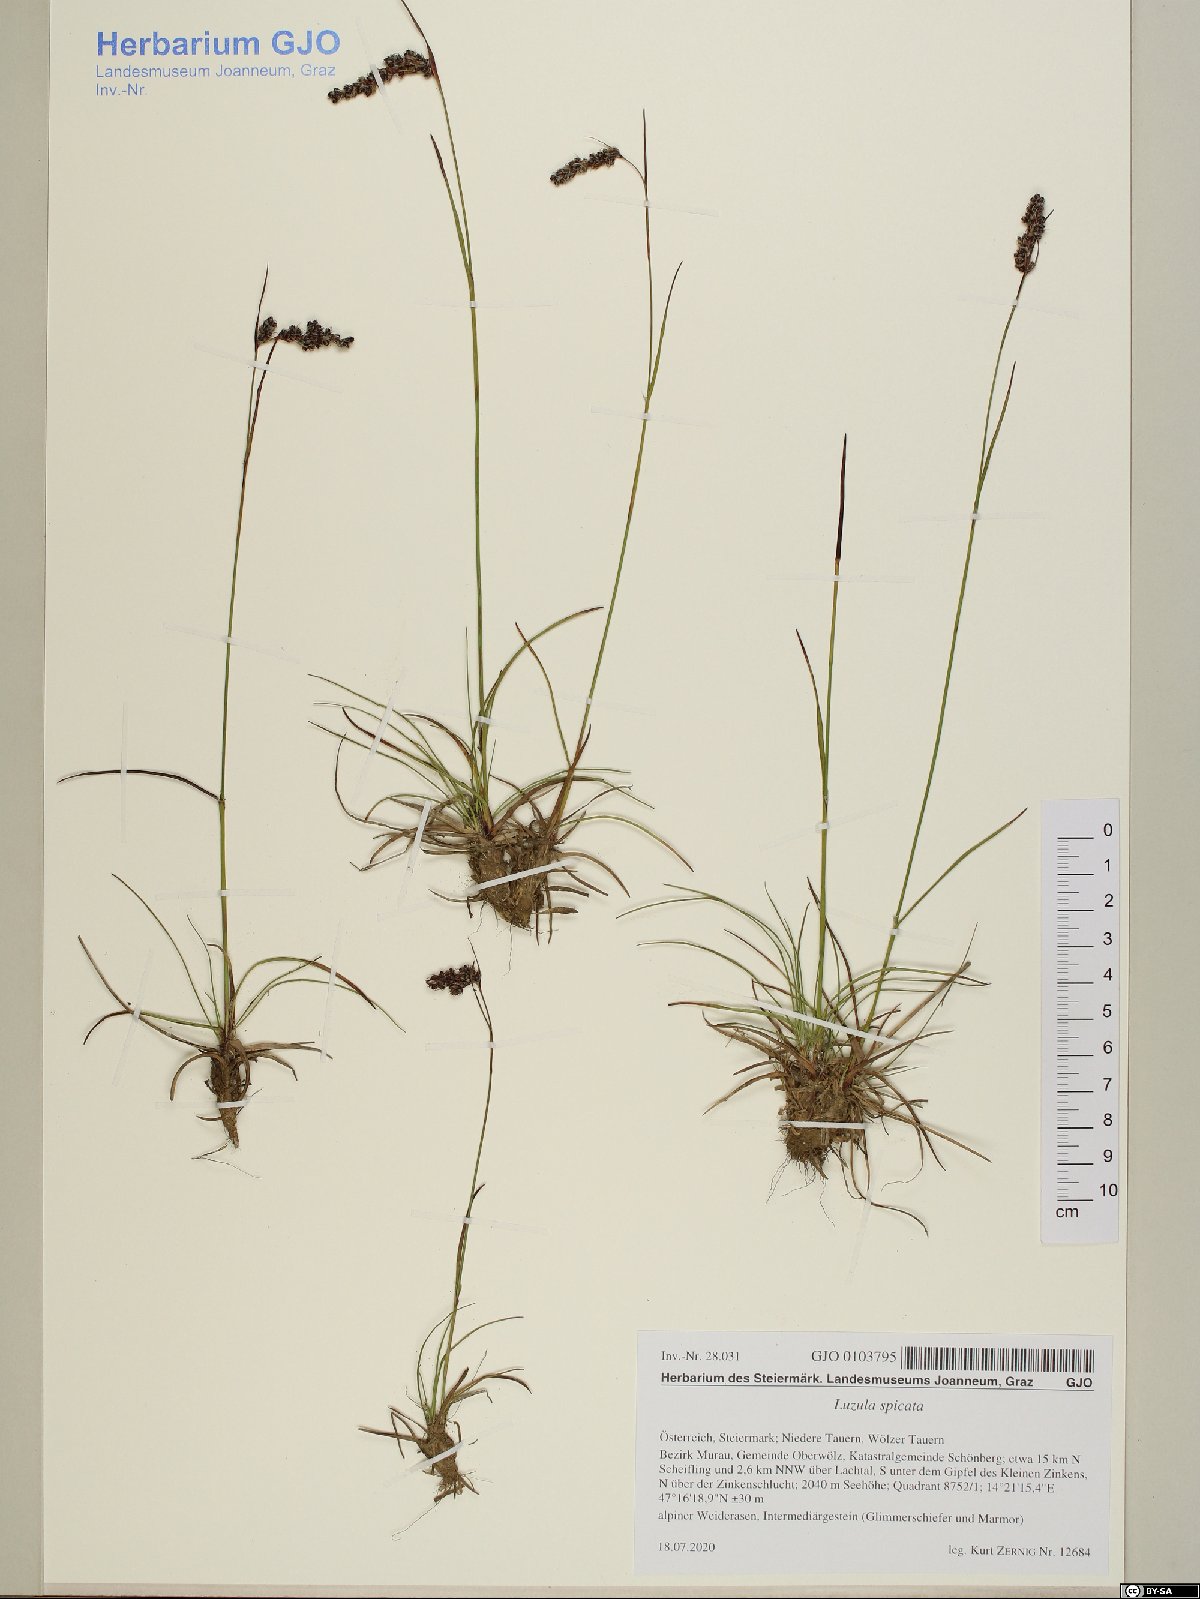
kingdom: Plantae
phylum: Tracheophyta
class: Liliopsida
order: Poales
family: Juncaceae
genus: Luzula
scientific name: Luzula spicata
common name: Spiked wood-rush
